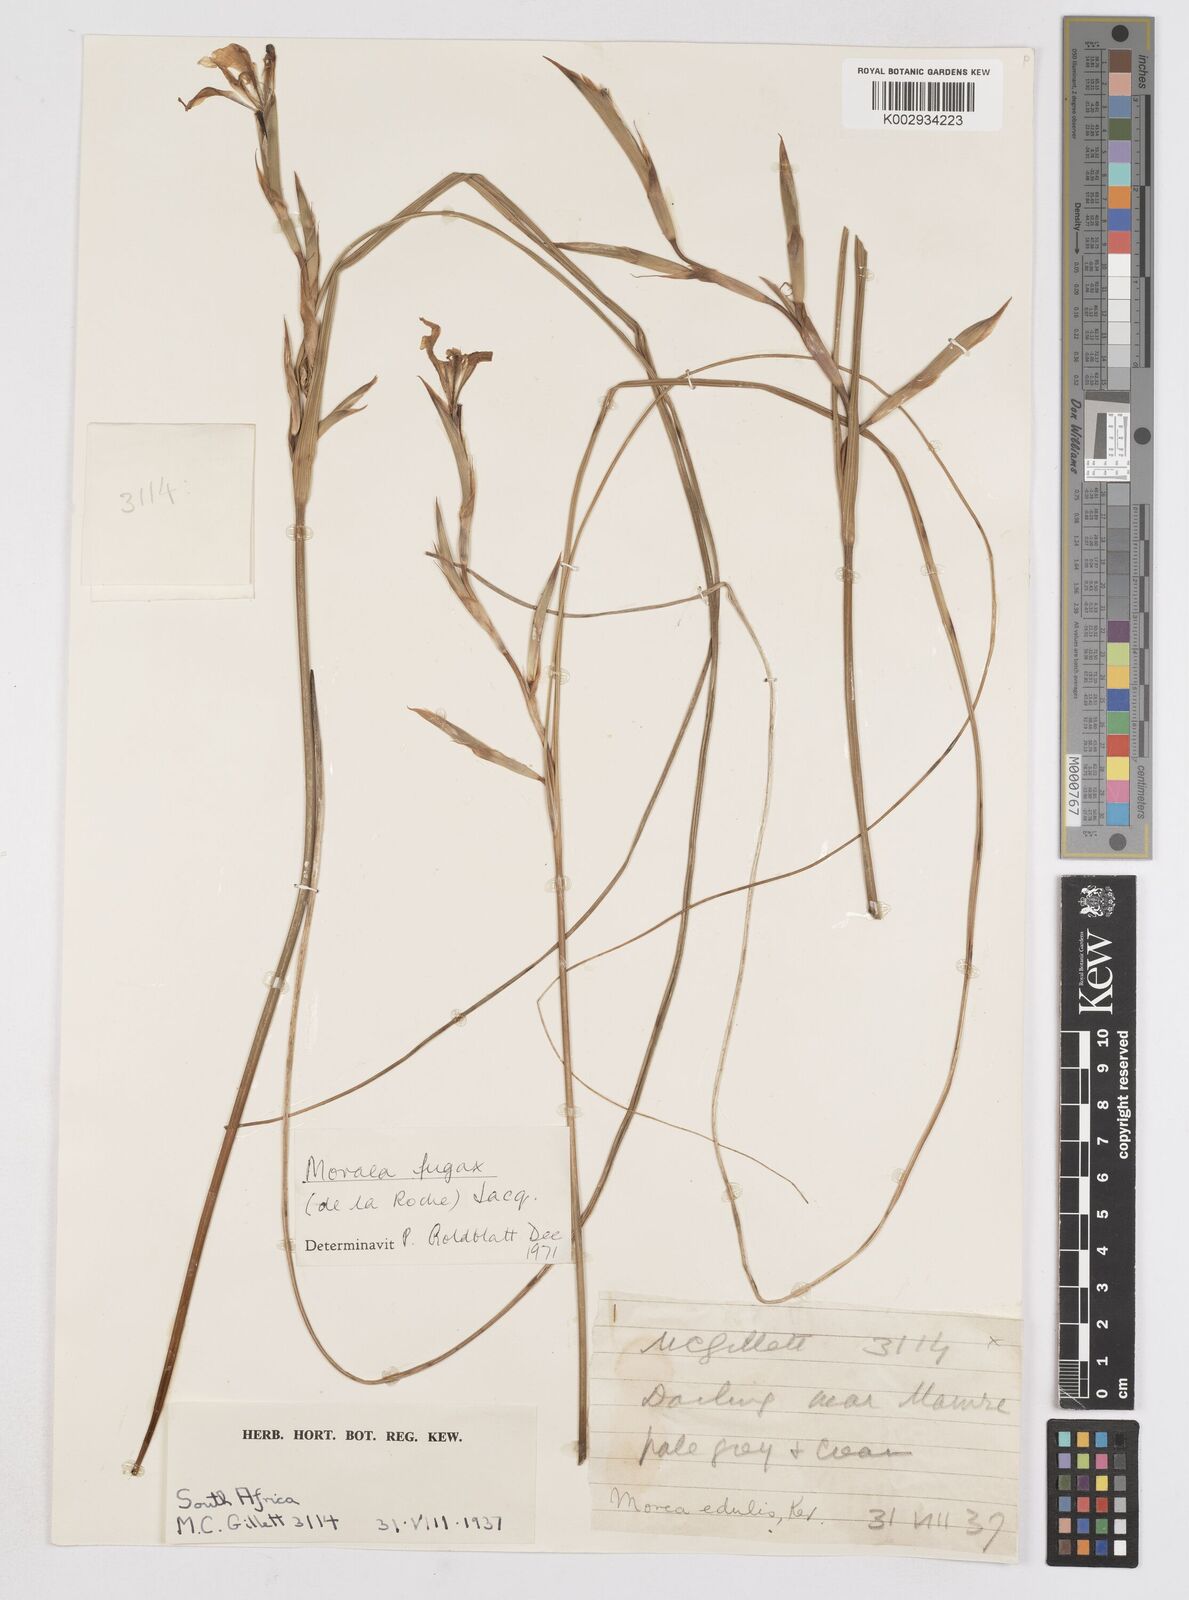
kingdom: Plantae
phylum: Tracheophyta
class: Liliopsida
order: Asparagales
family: Iridaceae
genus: Moraea
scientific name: Moraea fugax
